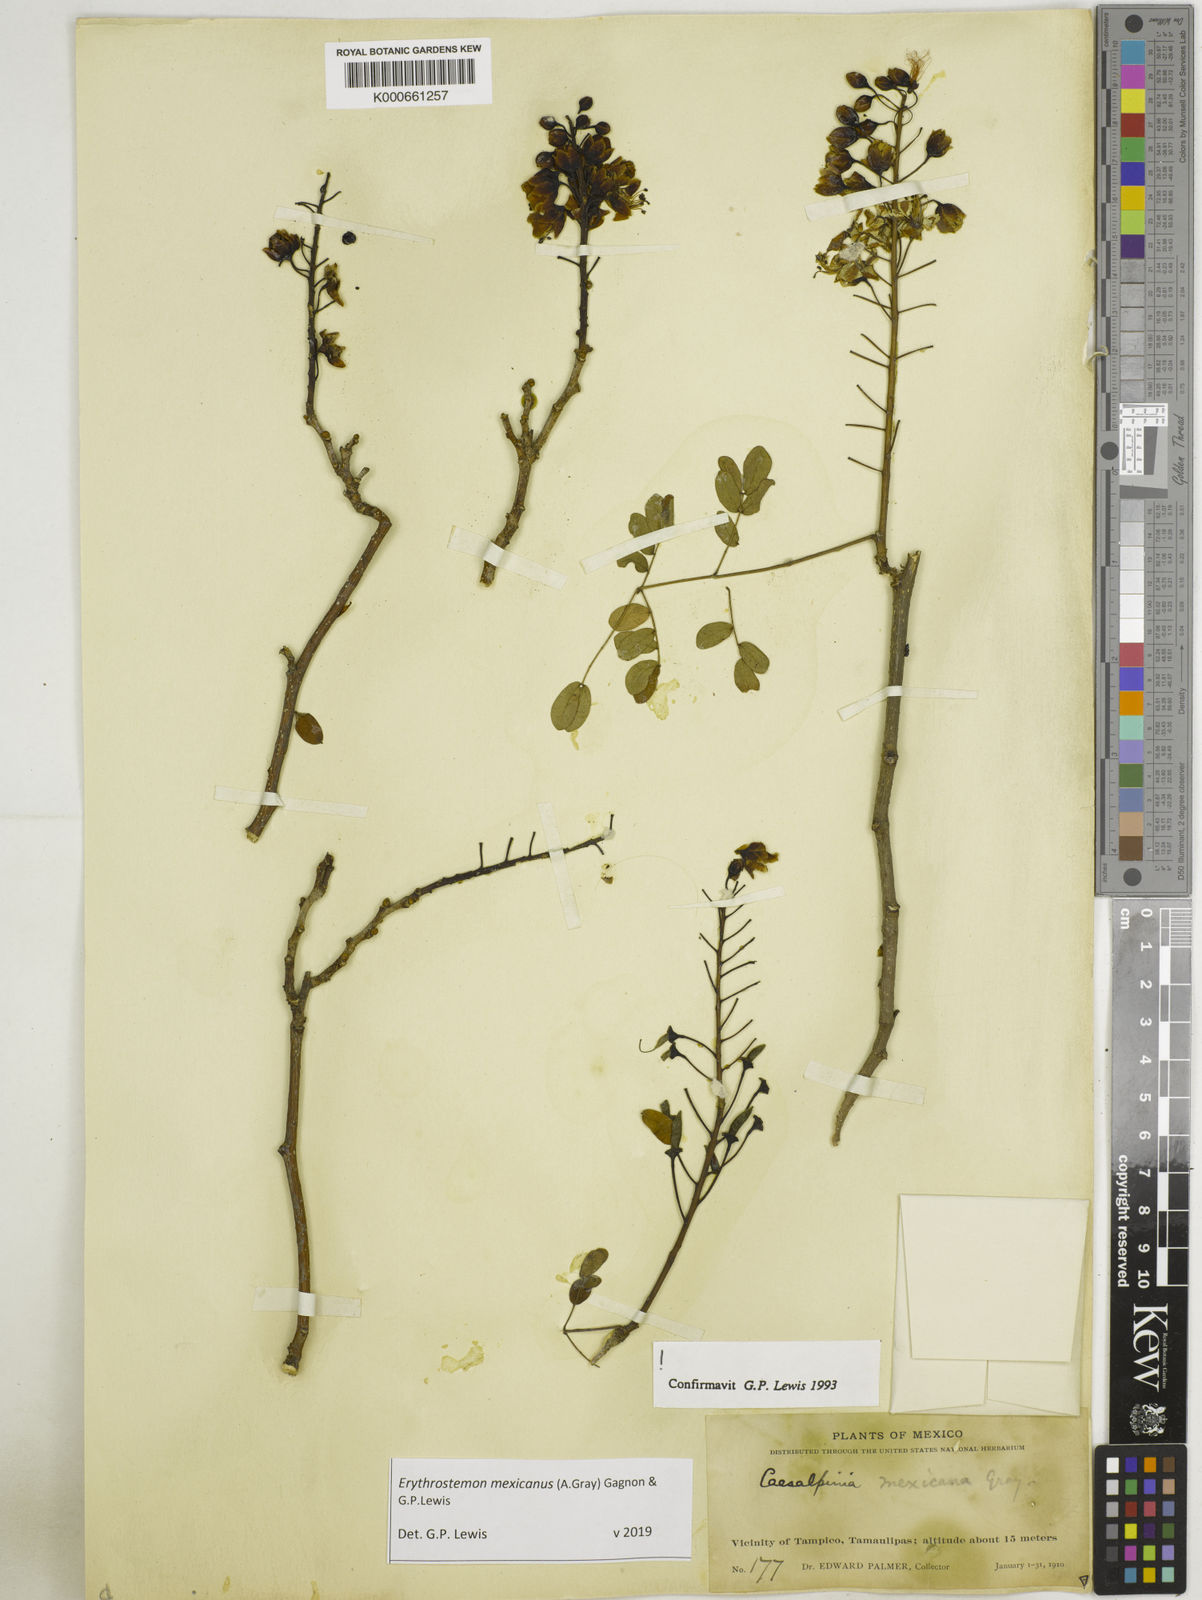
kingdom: Plantae
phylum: Tracheophyta
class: Magnoliopsida
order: Fabales
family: Fabaceae
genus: Erythrostemon
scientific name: Erythrostemon mexicanus
